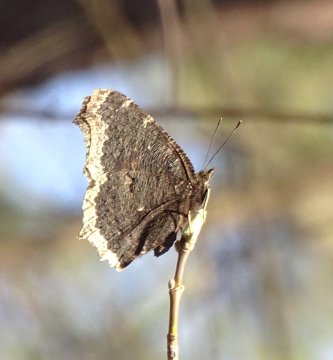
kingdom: Animalia
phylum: Arthropoda
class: Insecta
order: Lepidoptera
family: Nymphalidae
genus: Nymphalis
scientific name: Nymphalis antiopa
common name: Mourning Cloak
